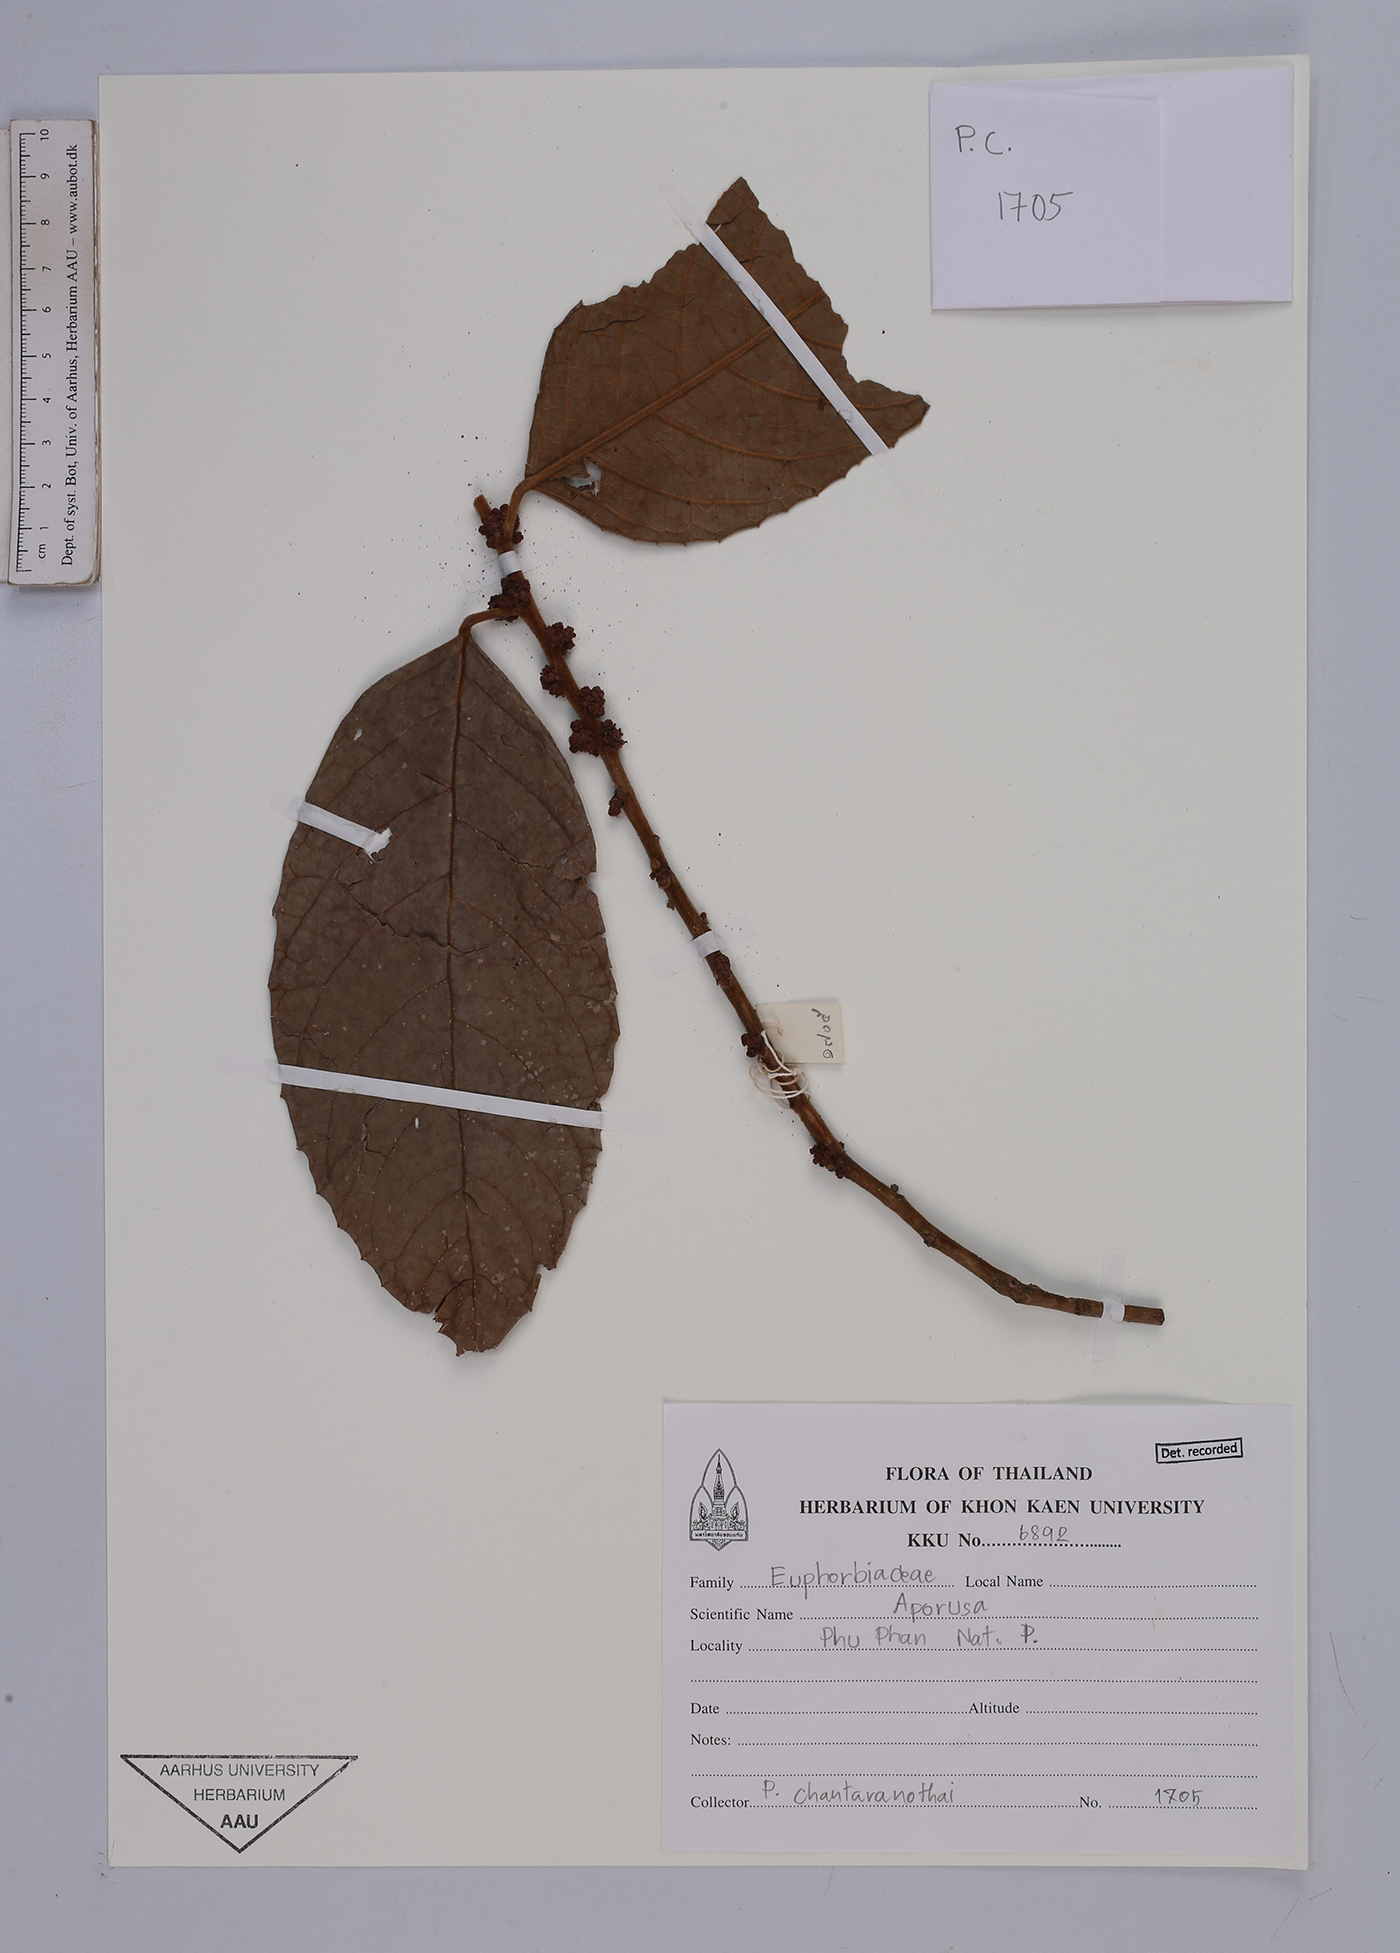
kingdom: Plantae
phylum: Tracheophyta
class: Magnoliopsida
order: Malpighiales
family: Phyllanthaceae
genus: Aporosa
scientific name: Aporosa
